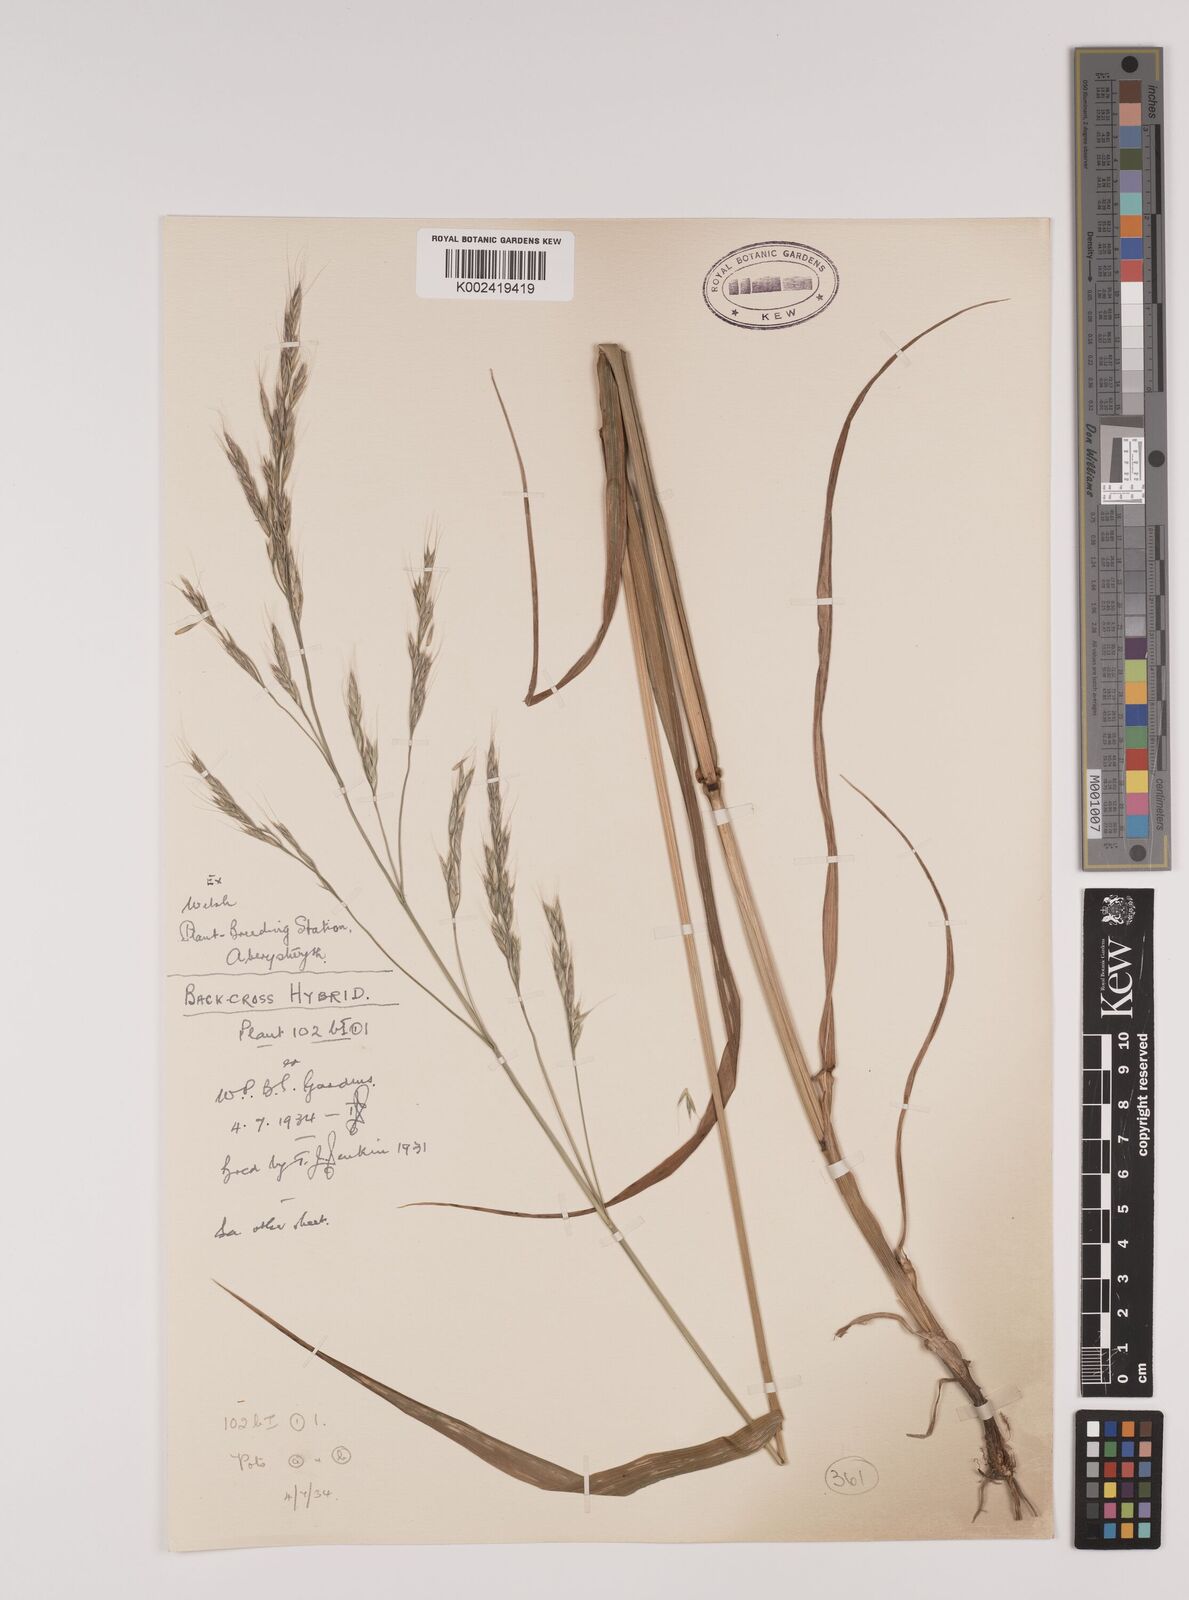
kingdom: Plantae
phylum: Tracheophyta
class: Liliopsida
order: Poales
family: Poaceae
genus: Lolium
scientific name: Lolium giganteum
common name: Giant fescue
